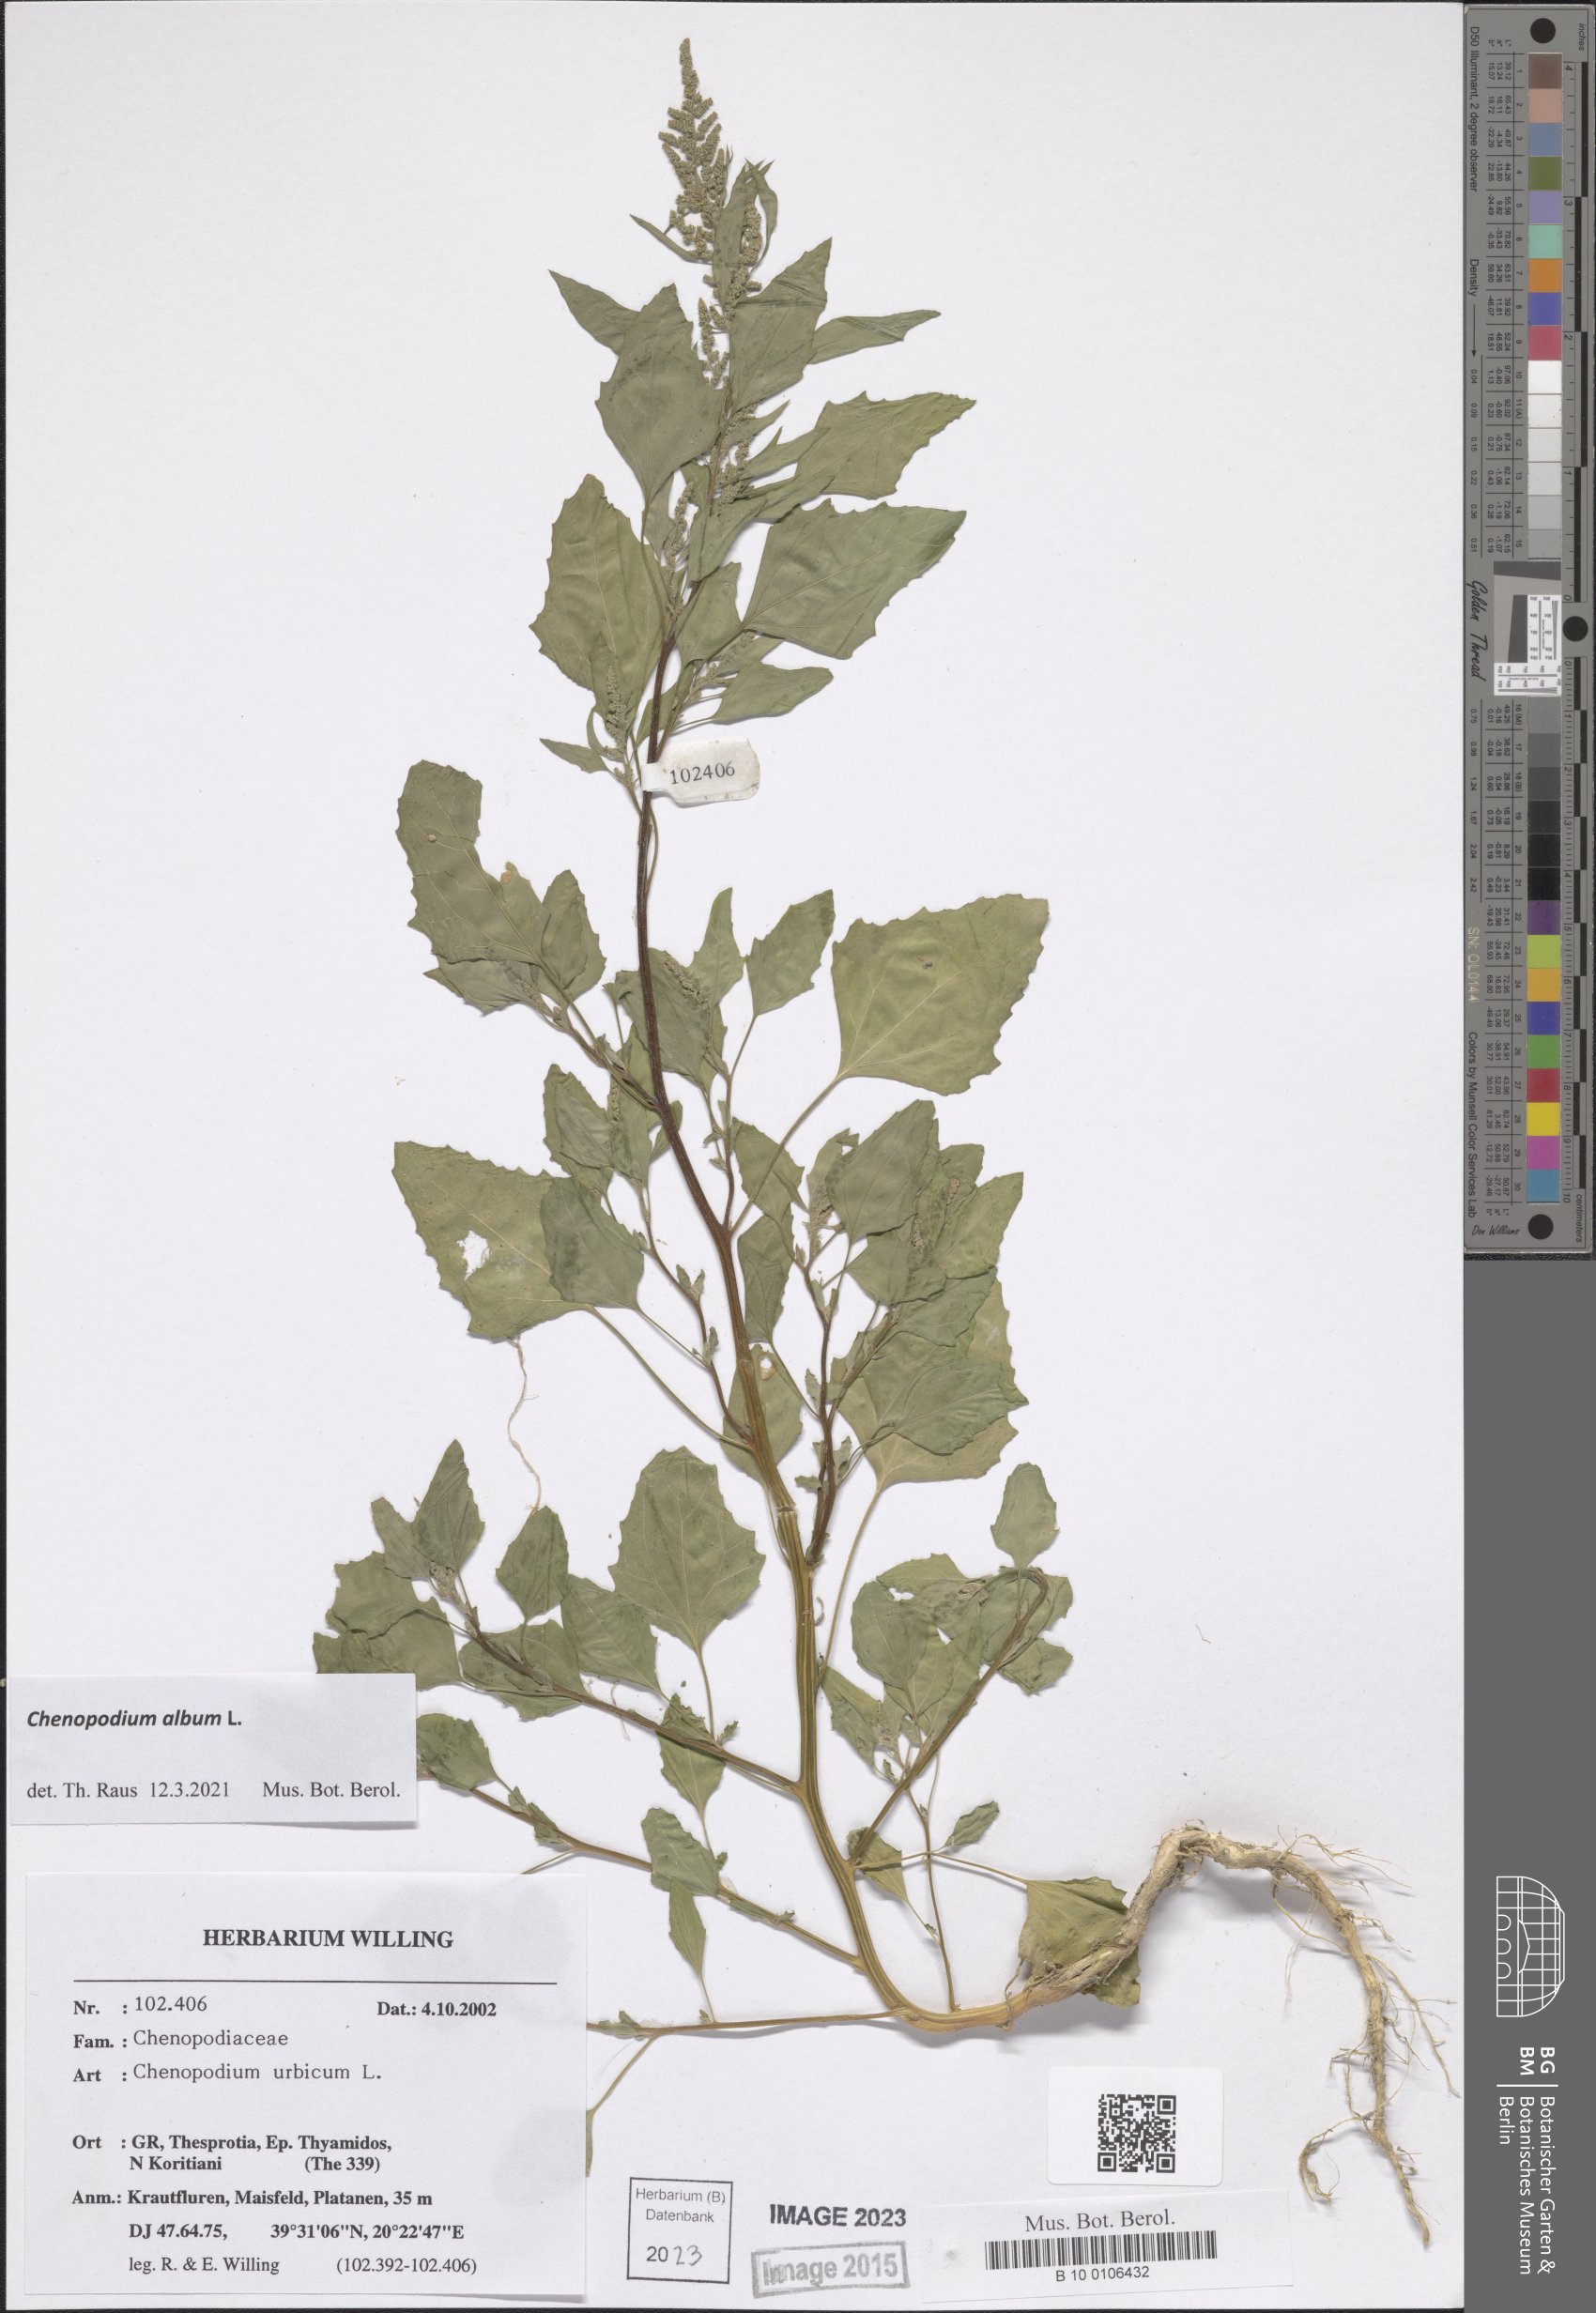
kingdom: Plantae
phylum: Tracheophyta
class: Magnoliopsida
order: Caryophyllales
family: Amaranthaceae
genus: Chenopodium
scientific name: Chenopodium album
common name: Fat-hen
